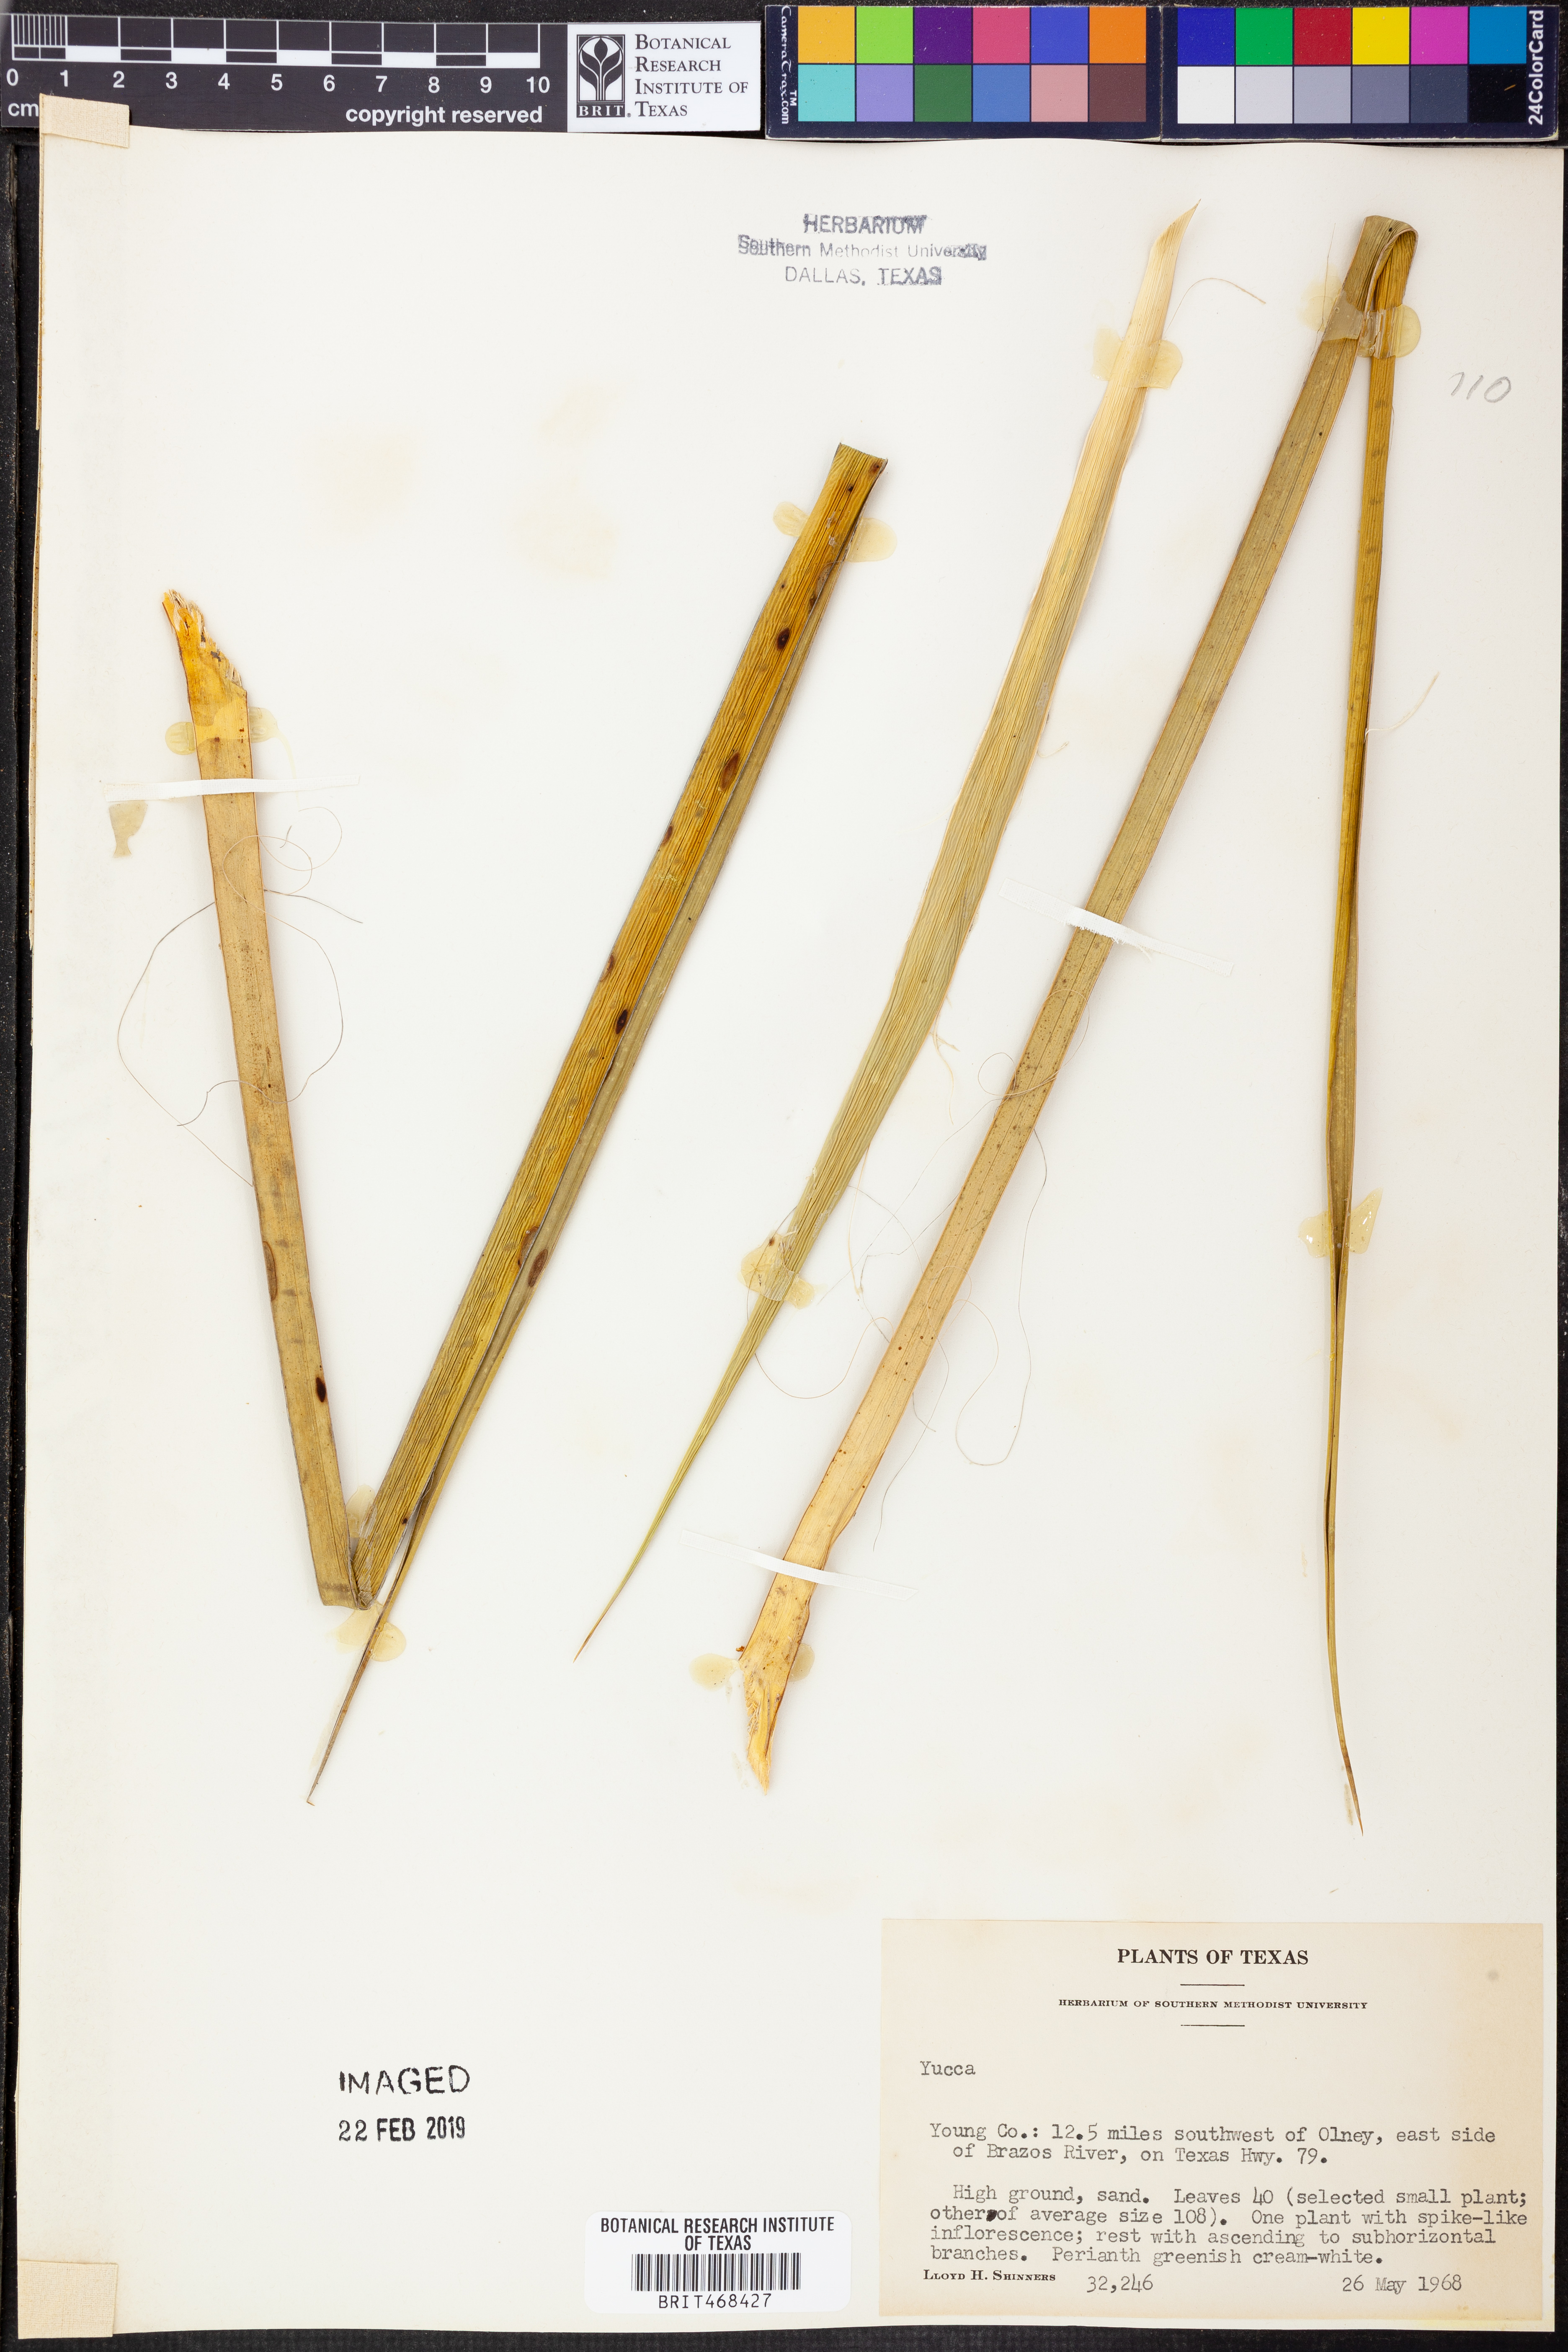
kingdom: Plantae
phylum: Tracheophyta
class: Liliopsida
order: Asparagales
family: Asparagaceae
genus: Yucca
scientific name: Yucca
